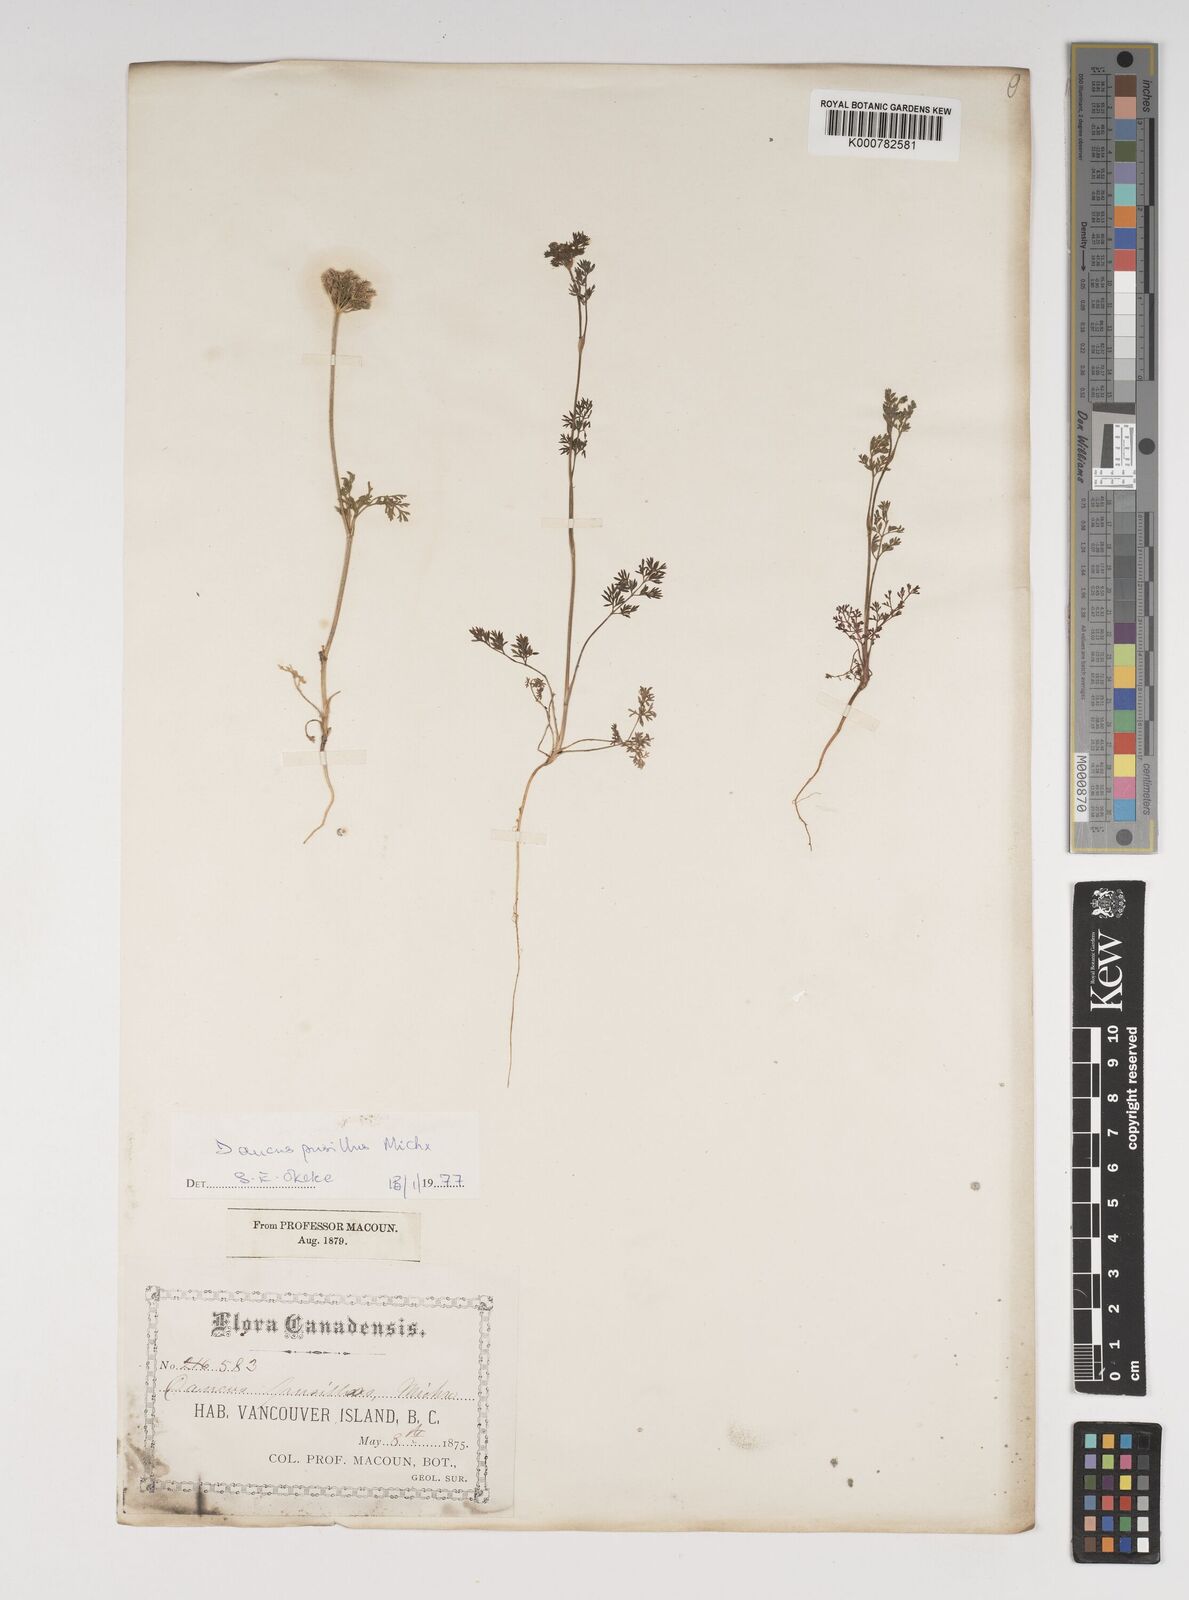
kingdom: Plantae
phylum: Tracheophyta
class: Magnoliopsida
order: Apiales
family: Apiaceae
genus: Daucus
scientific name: Daucus pusillus
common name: Southwest wild carrot
